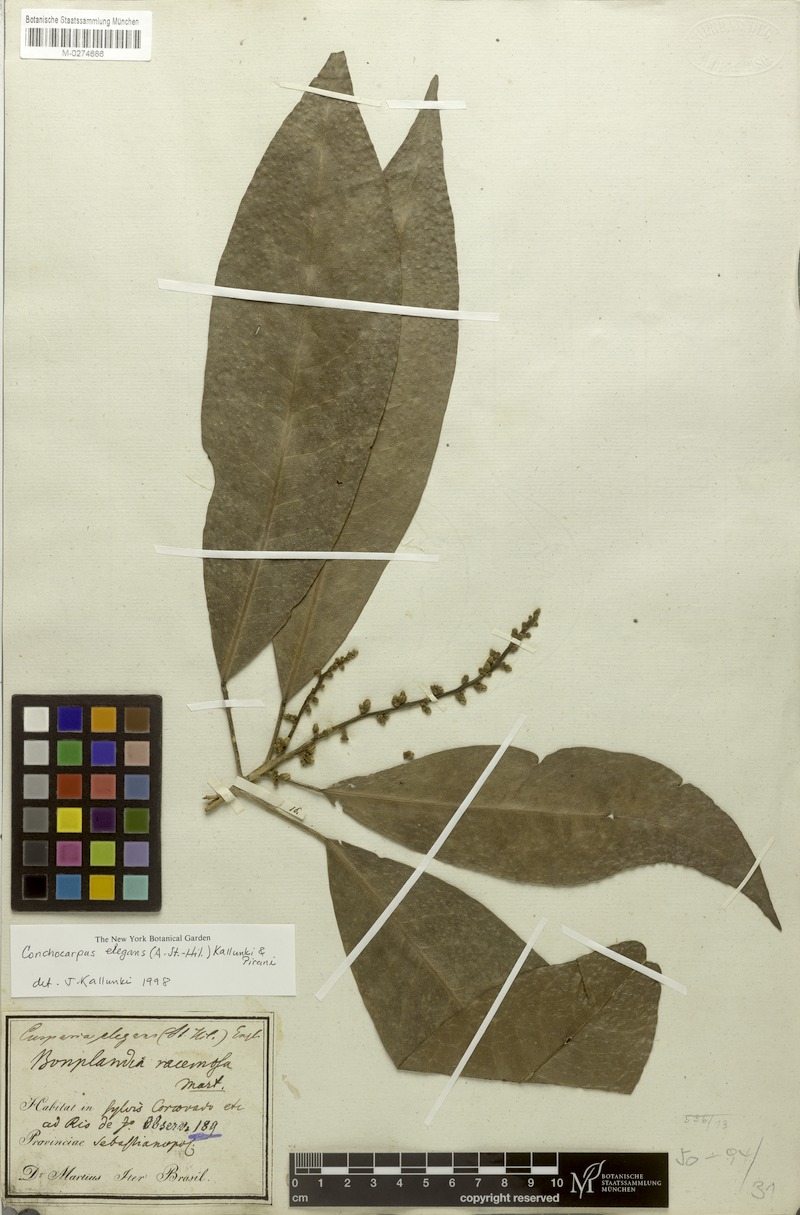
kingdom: Plantae
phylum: Tracheophyta
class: Magnoliopsida
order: Sapindales
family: Rutaceae
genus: Conchocarpus
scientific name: Conchocarpus elegans
